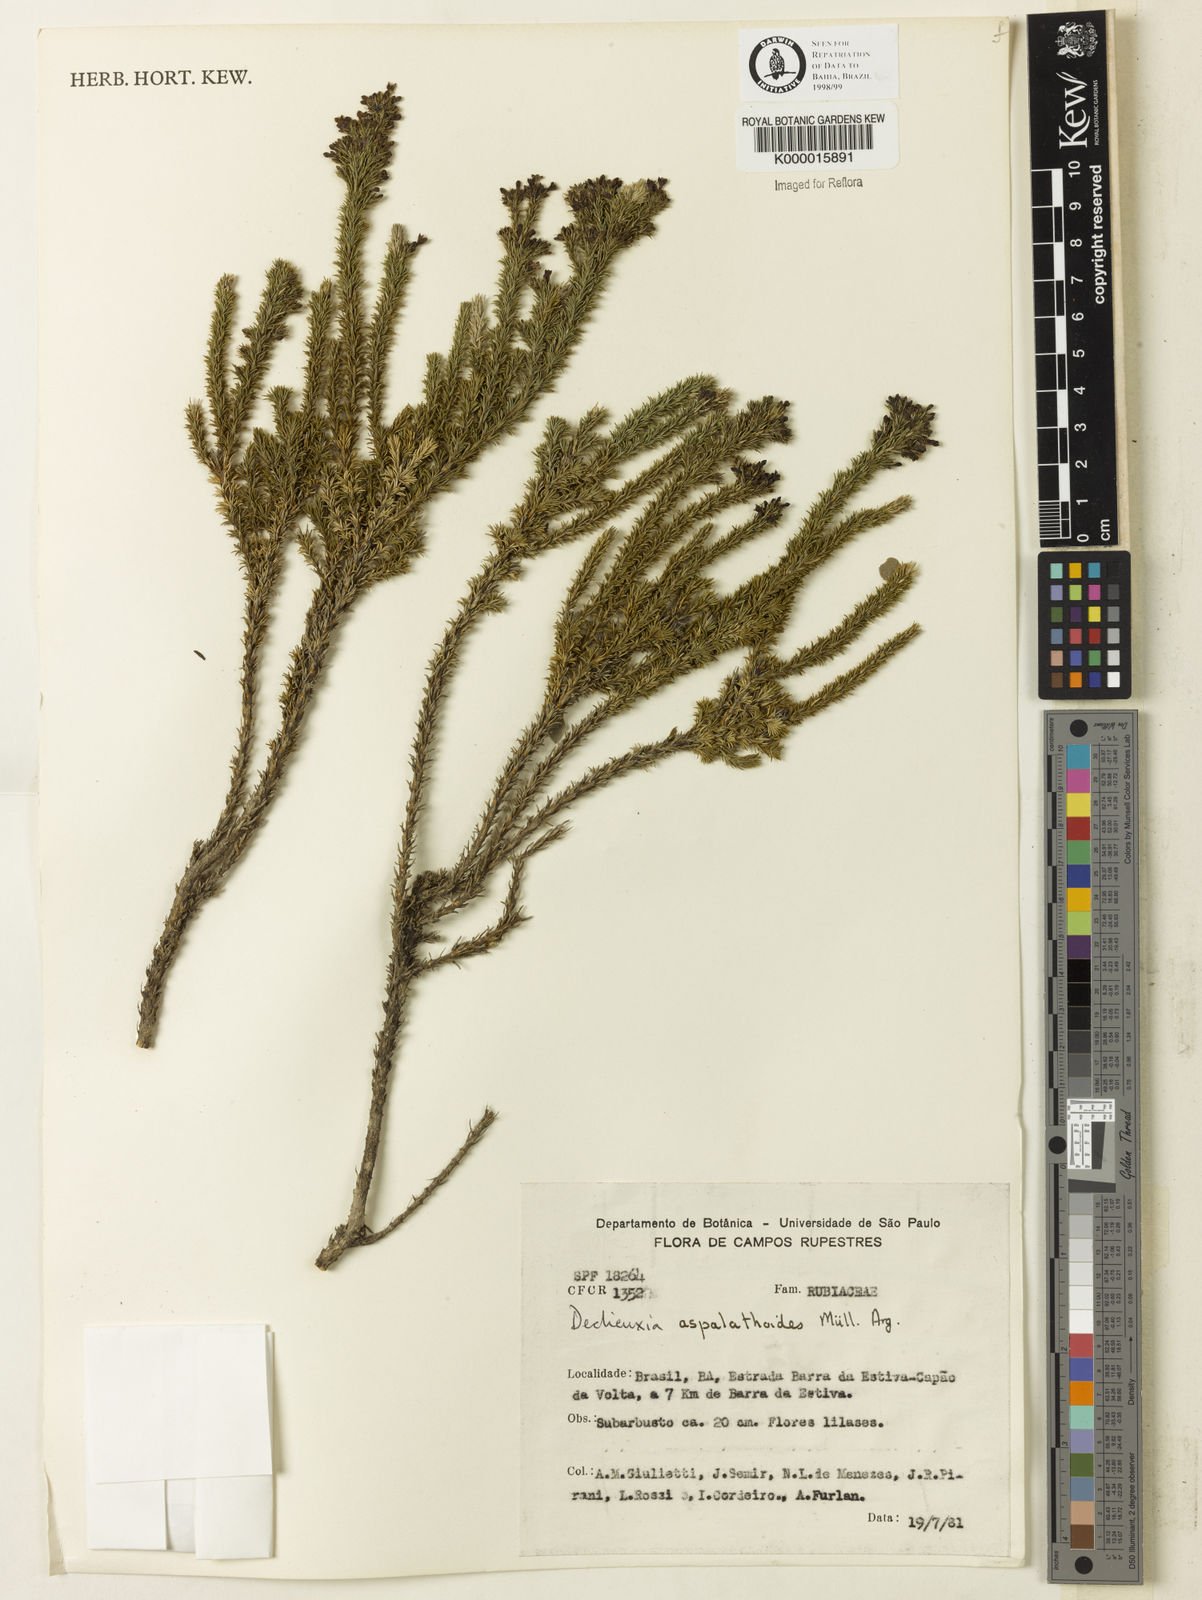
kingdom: Plantae
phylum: Tracheophyta
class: Magnoliopsida
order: Gentianales
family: Rubiaceae
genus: Declieuxia
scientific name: Declieuxia aspalathoides
